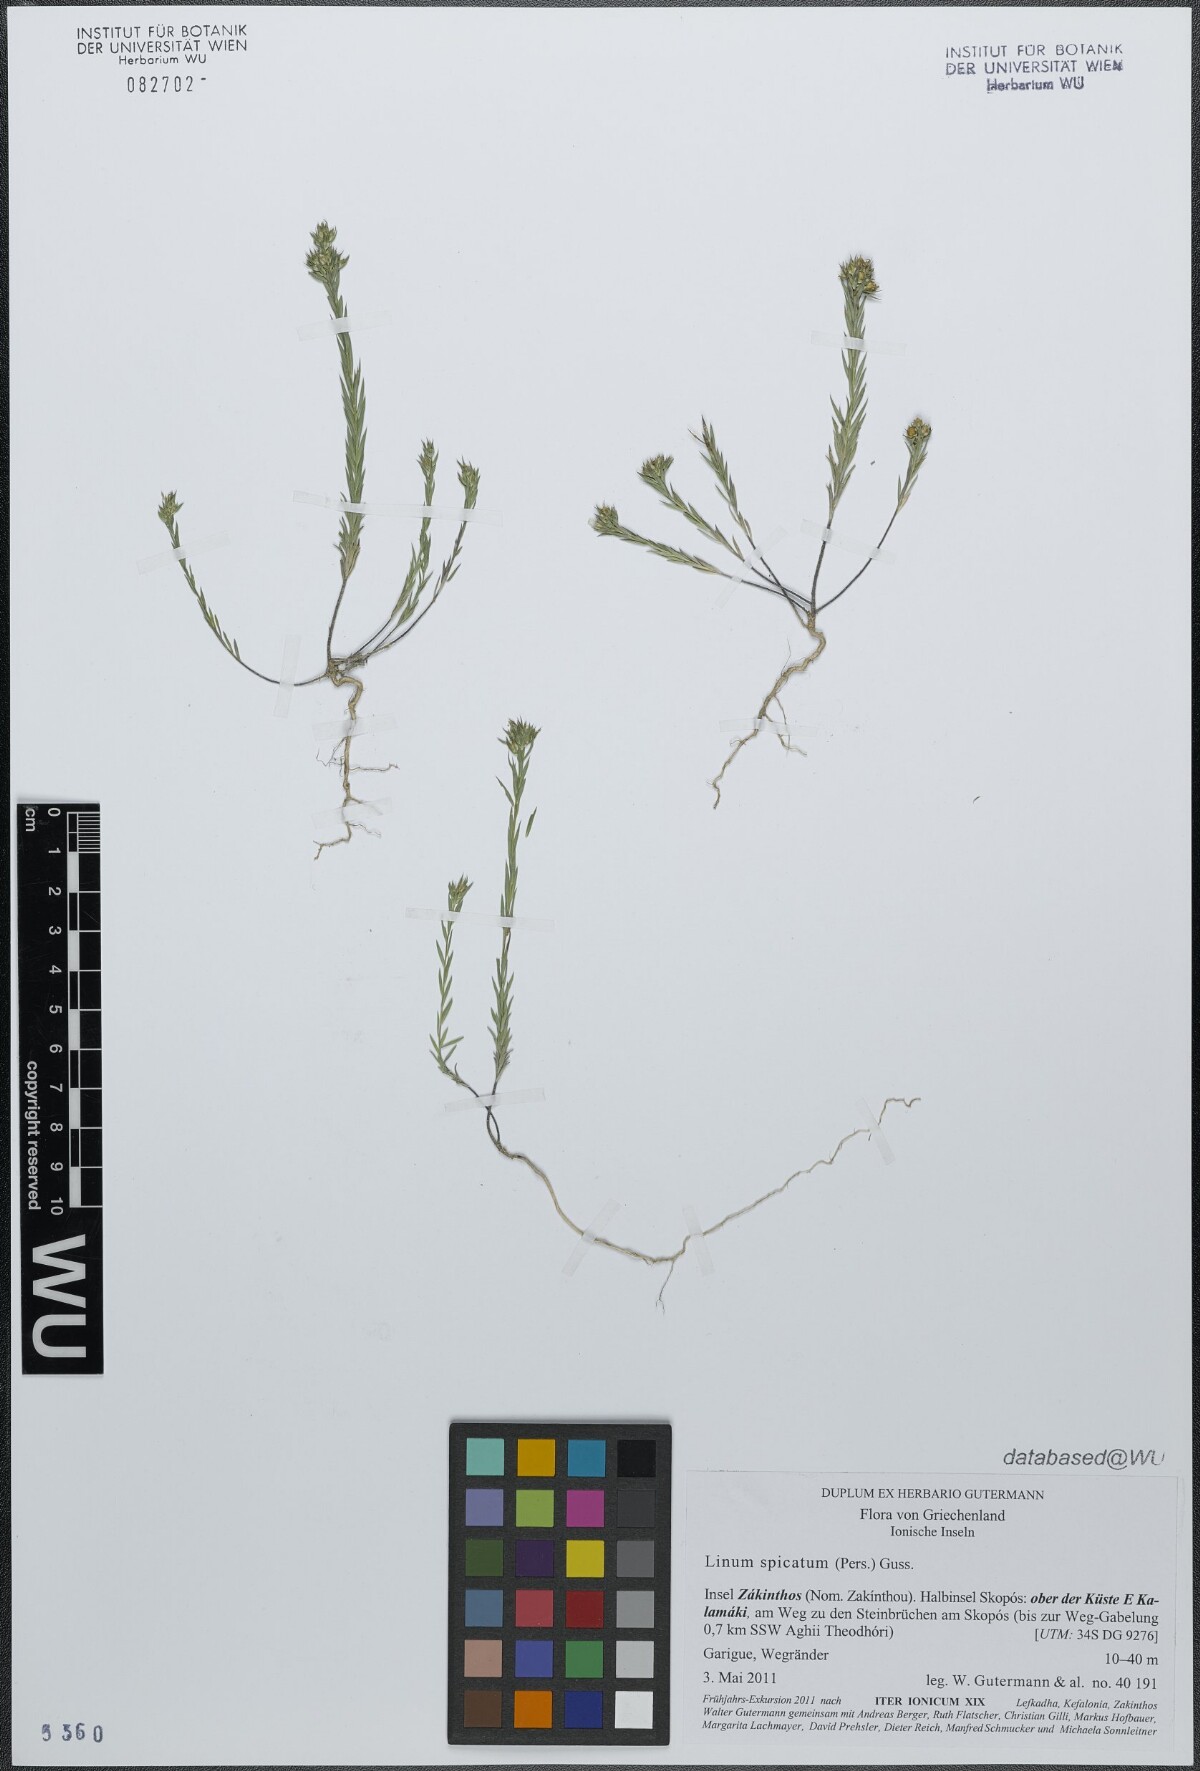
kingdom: Plantae
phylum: Tracheophyta
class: Magnoliopsida
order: Malpighiales
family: Linaceae
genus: Linum
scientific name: Linum strictum
